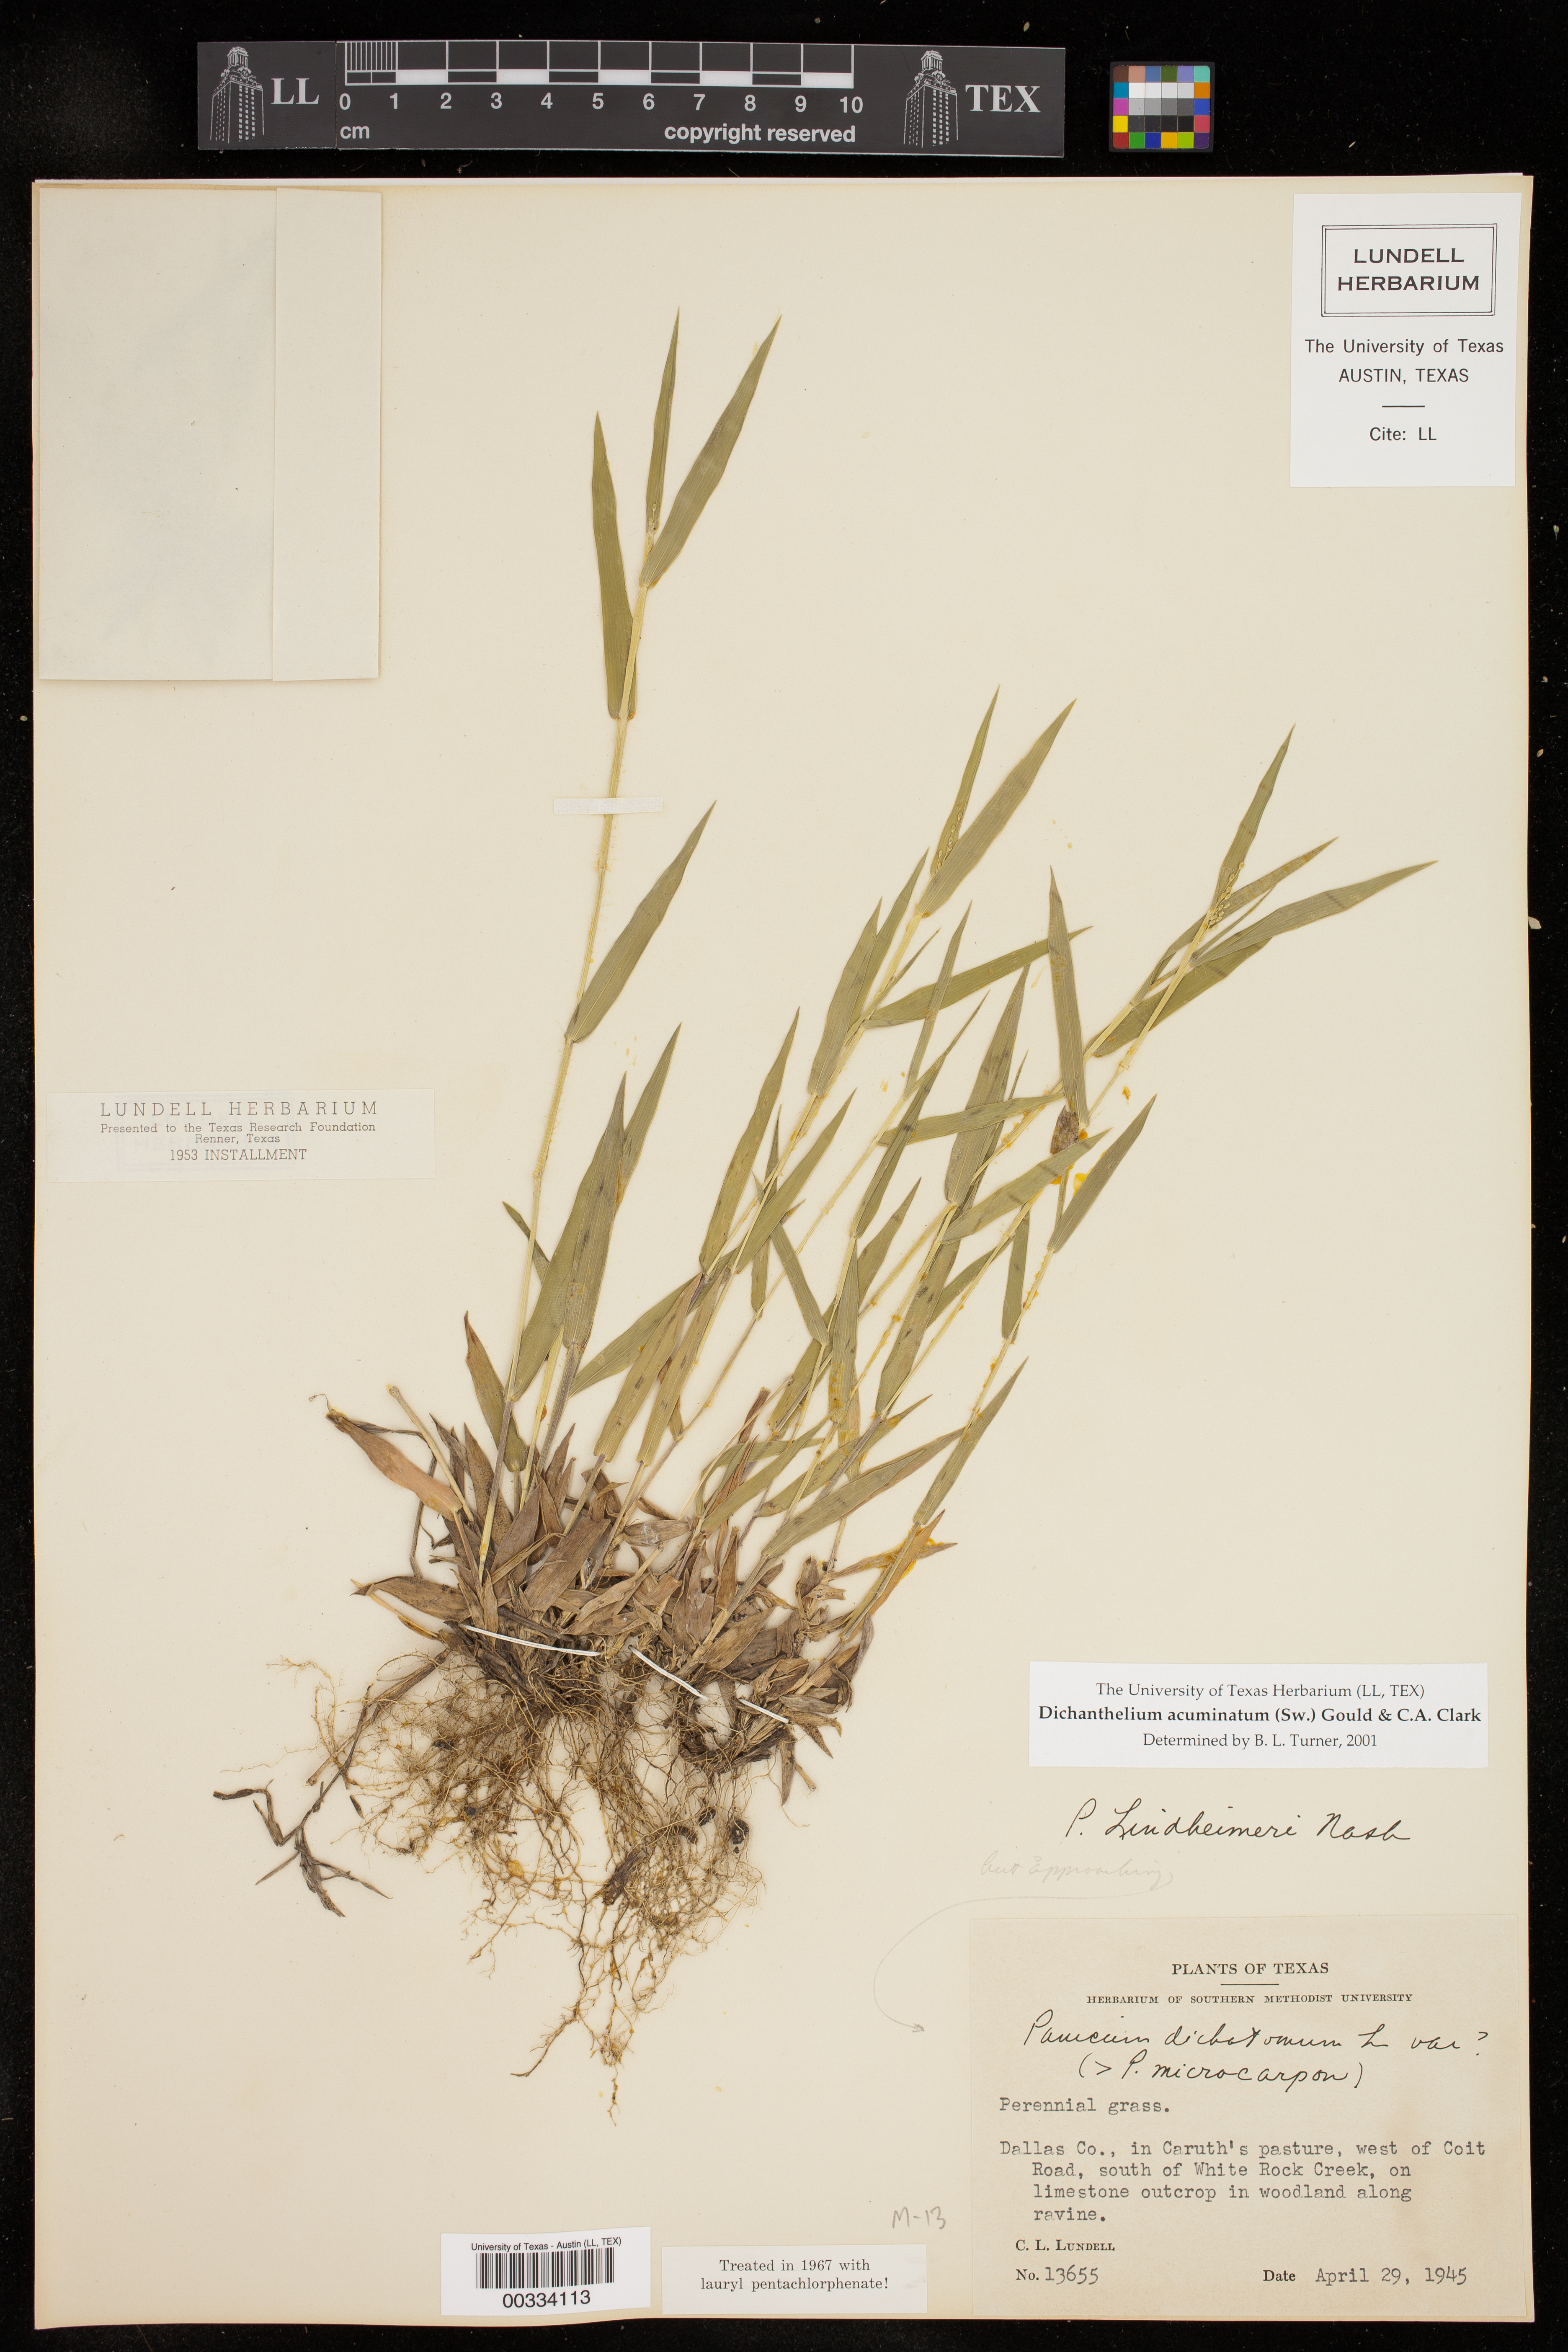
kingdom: Plantae
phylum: Tracheophyta
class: Liliopsida
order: Poales
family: Poaceae
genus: Dichanthelium
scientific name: Dichanthelium acuminatum
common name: Hairy panic grass
